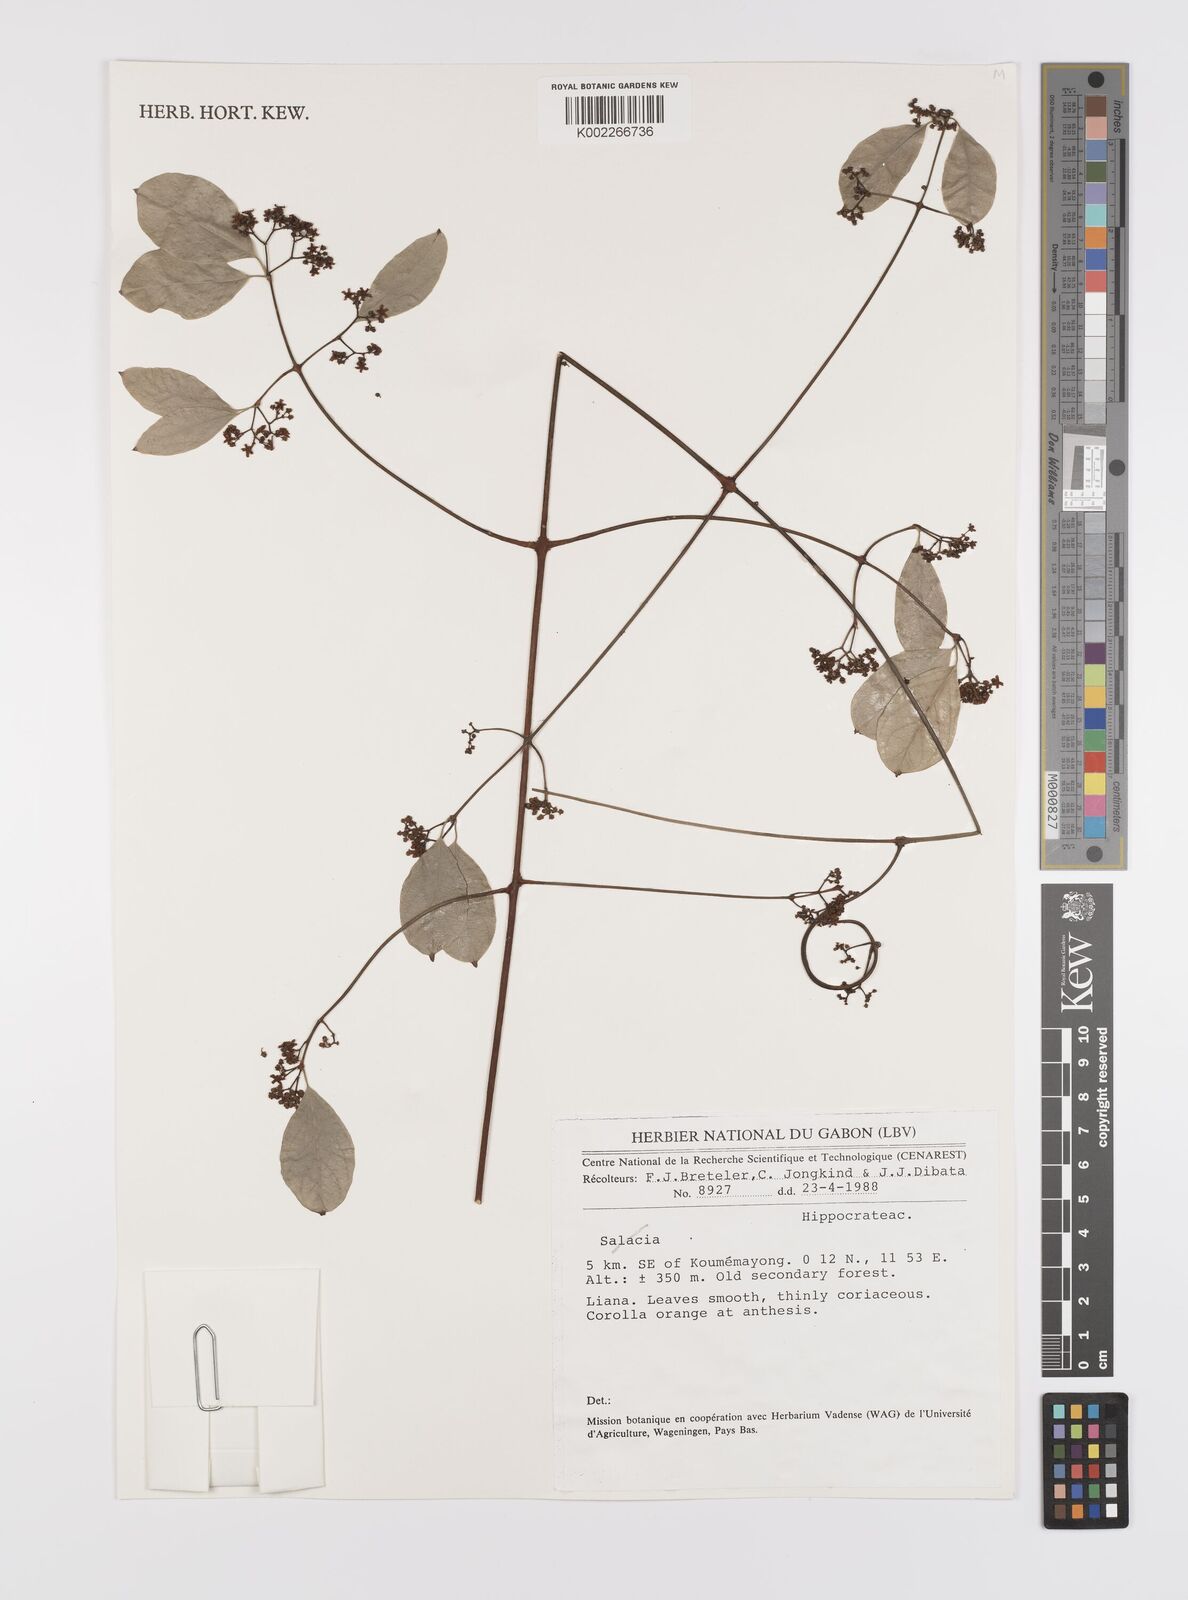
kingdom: Plantae
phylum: Tracheophyta
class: Magnoliopsida
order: Celastrales
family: Celastraceae
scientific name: Celastraceae
